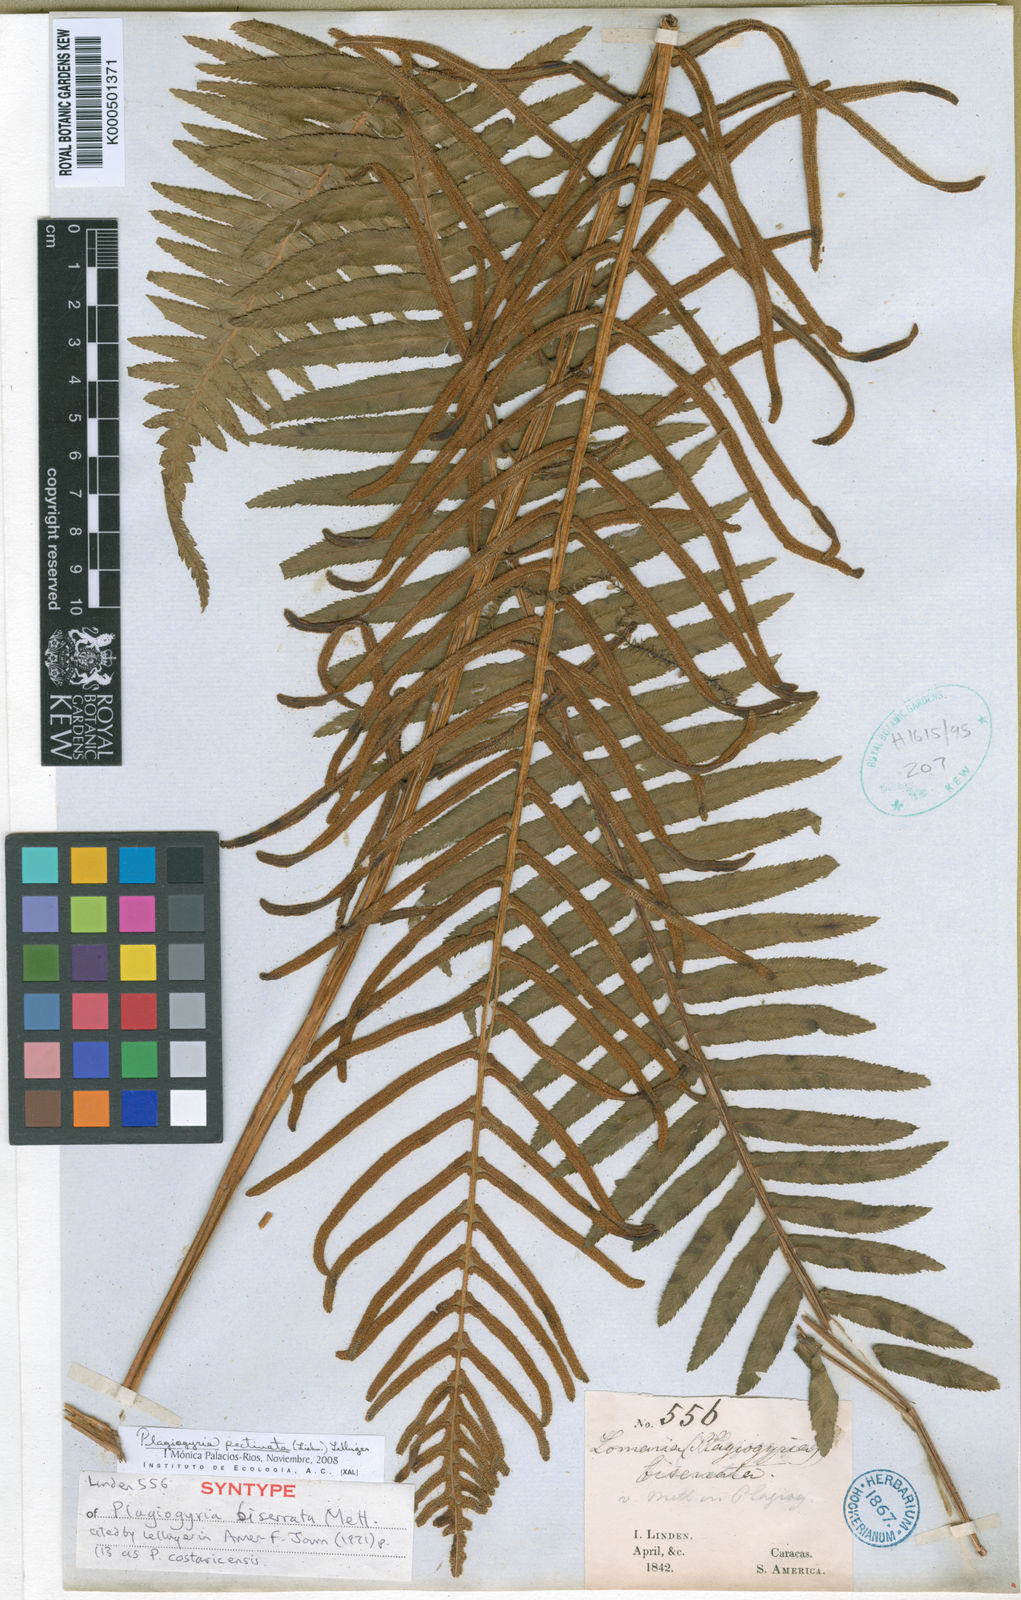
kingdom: Plantae
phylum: Tracheophyta
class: Polypodiopsida
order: Cyatheales
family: Plagiogyriaceae
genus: Plagiogyria
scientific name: Plagiogyria pectinata
